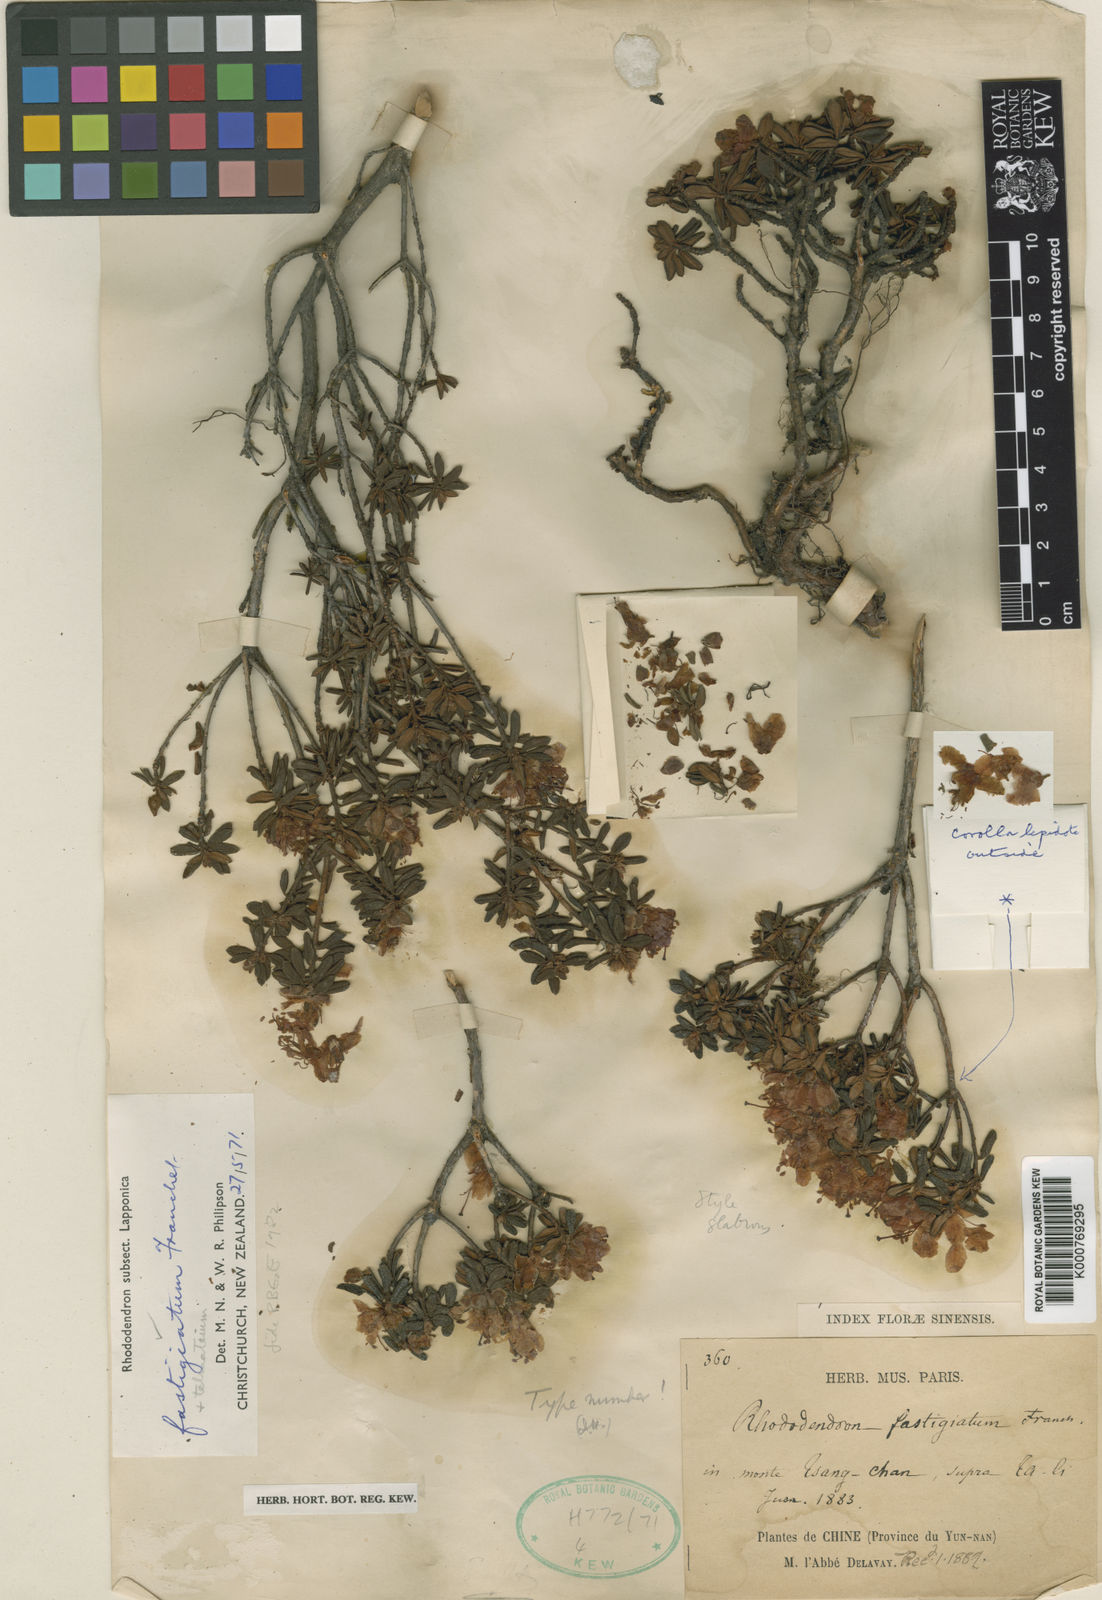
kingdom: Plantae
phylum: Tracheophyta
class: Magnoliopsida
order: Ericales
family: Ericaceae
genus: Rhododendron
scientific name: Rhododendron fastigiatum
